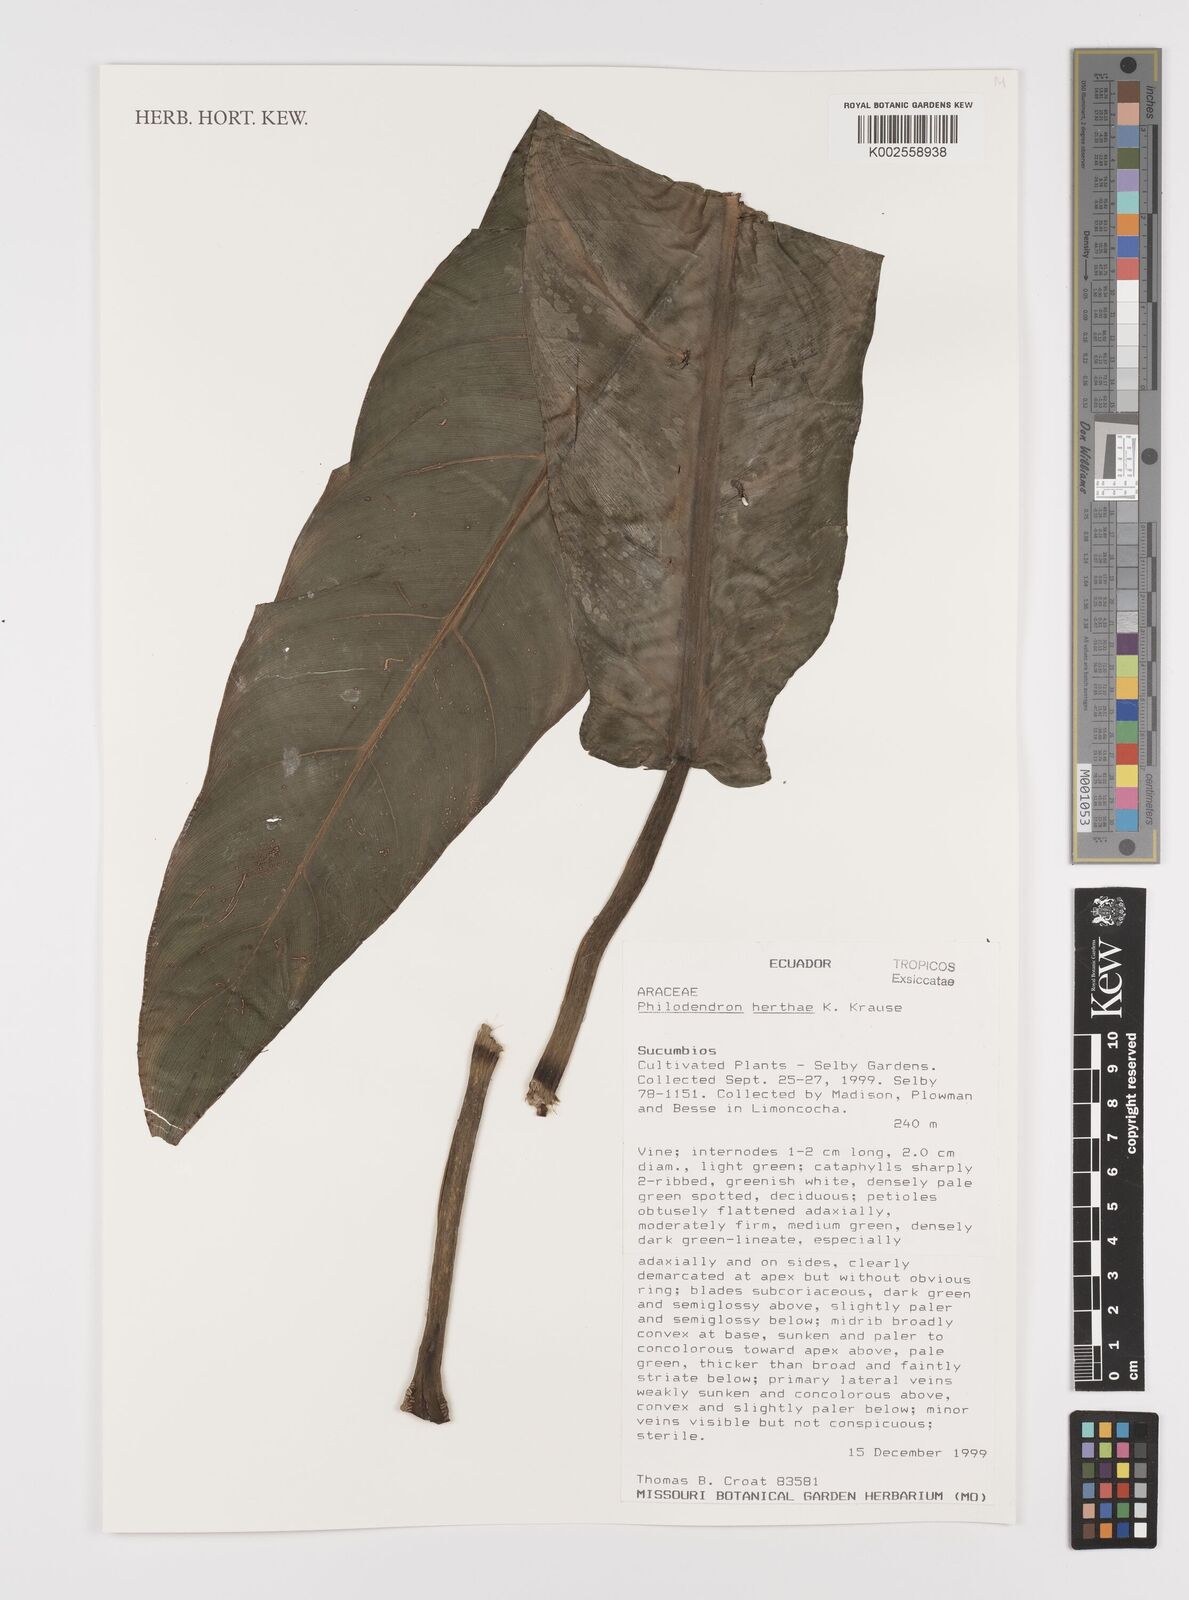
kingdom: Plantae
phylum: Tracheophyta
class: Liliopsida
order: Alismatales
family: Araceae
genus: Philodendron
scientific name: Philodendron herthae
